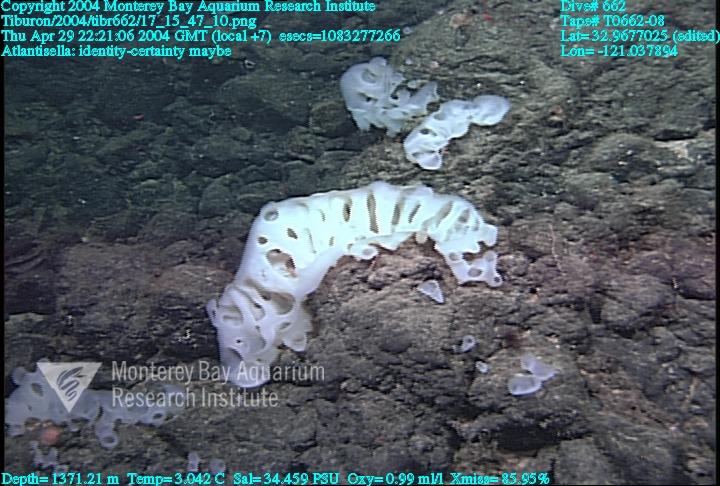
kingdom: Animalia
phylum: Porifera
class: Hexactinellida
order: Lyssacinosida
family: Euplectellidae
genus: Atlantisella
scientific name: Atlantisella
